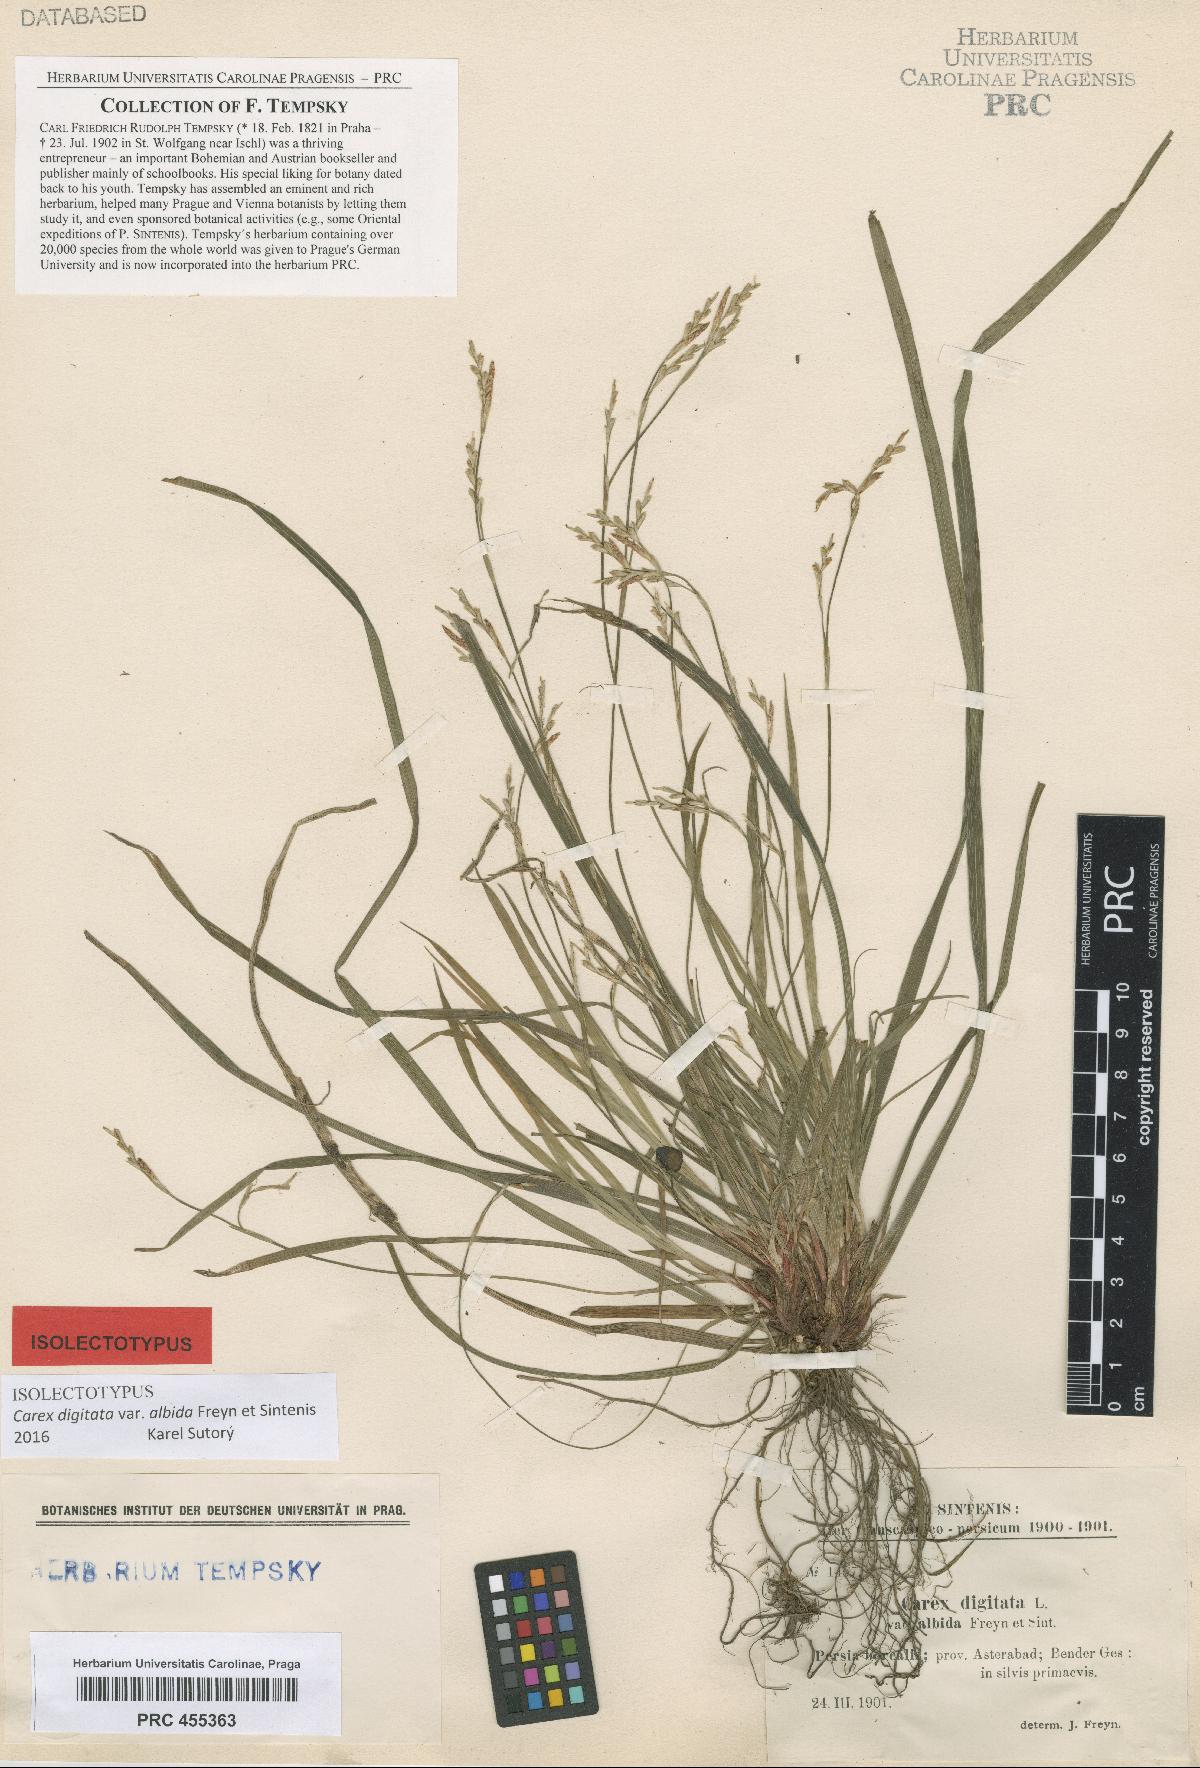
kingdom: Plantae
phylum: Tracheophyta
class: Liliopsida
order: Poales
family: Cyperaceae
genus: Carex
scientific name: Carex digitata
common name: Fingered sedge
